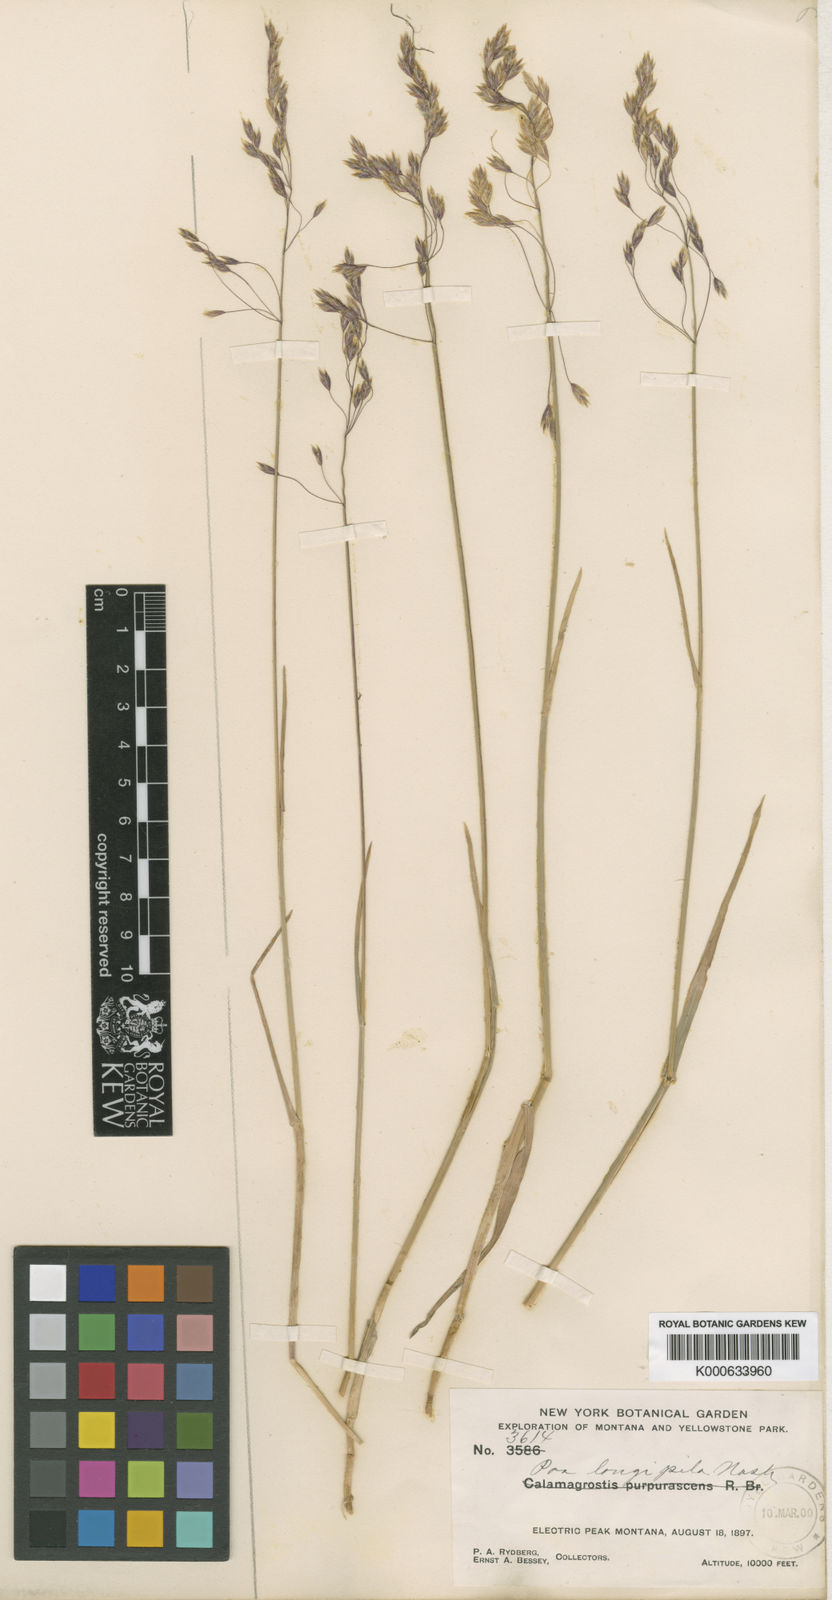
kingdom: Plantae
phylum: Tracheophyta
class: Liliopsida
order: Poales
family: Poaceae
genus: Poa
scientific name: Poa arctica
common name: Arctic bluegrass
